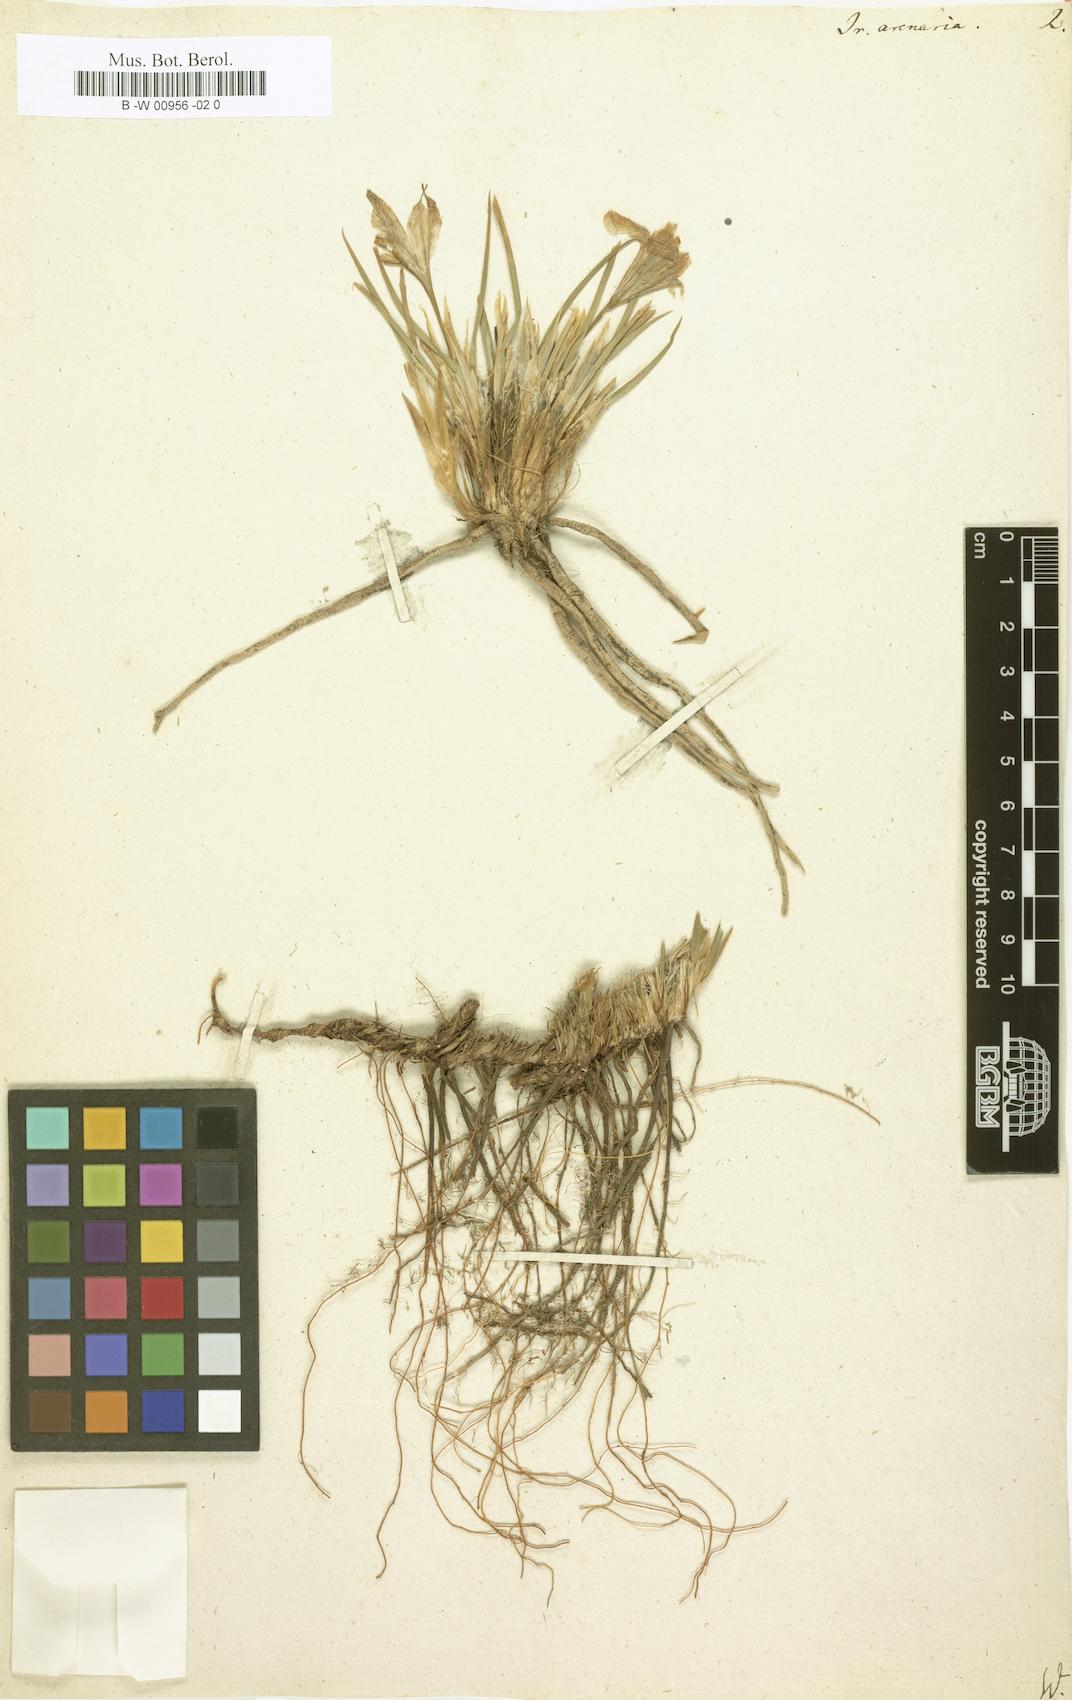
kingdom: Plantae
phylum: Tracheophyta
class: Liliopsida
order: Asparagales
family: Iridaceae
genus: Iris
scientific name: Iris arenaria
